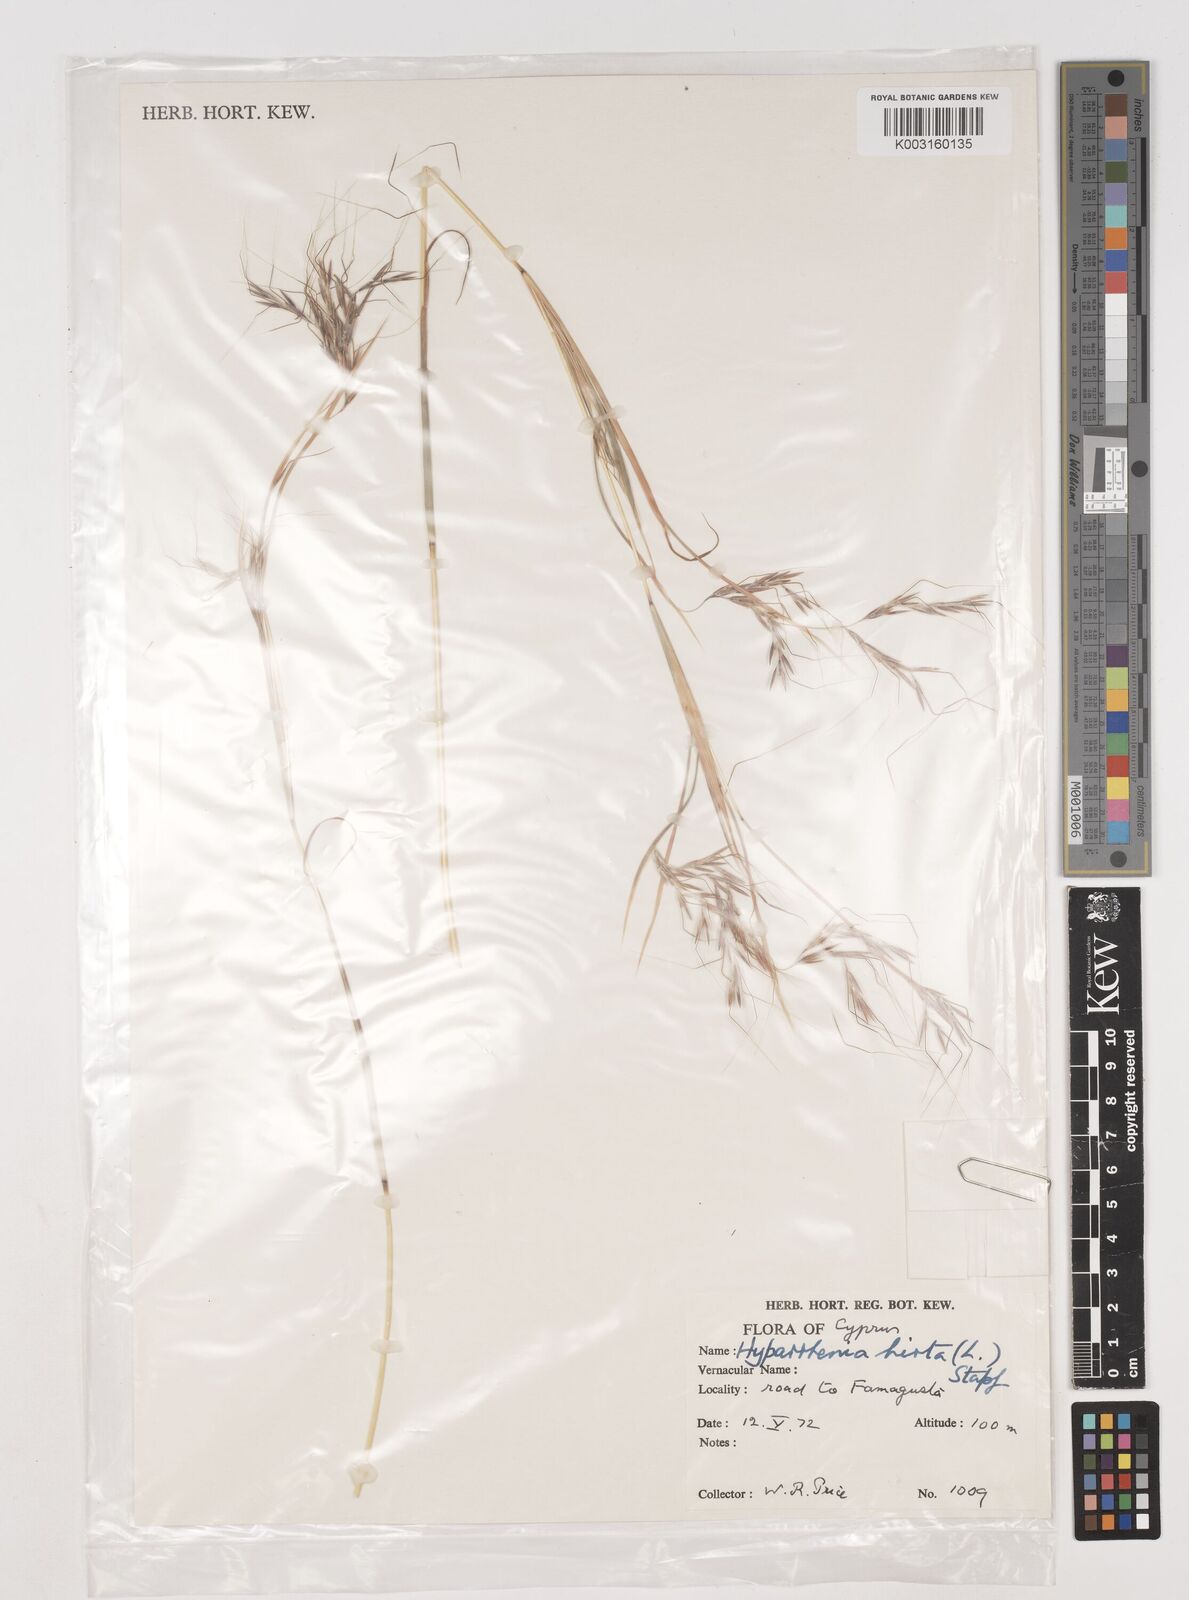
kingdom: Plantae
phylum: Tracheophyta
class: Liliopsida
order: Poales
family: Poaceae
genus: Hyparrhenia
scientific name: Hyparrhenia hirta
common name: Thatching grass
